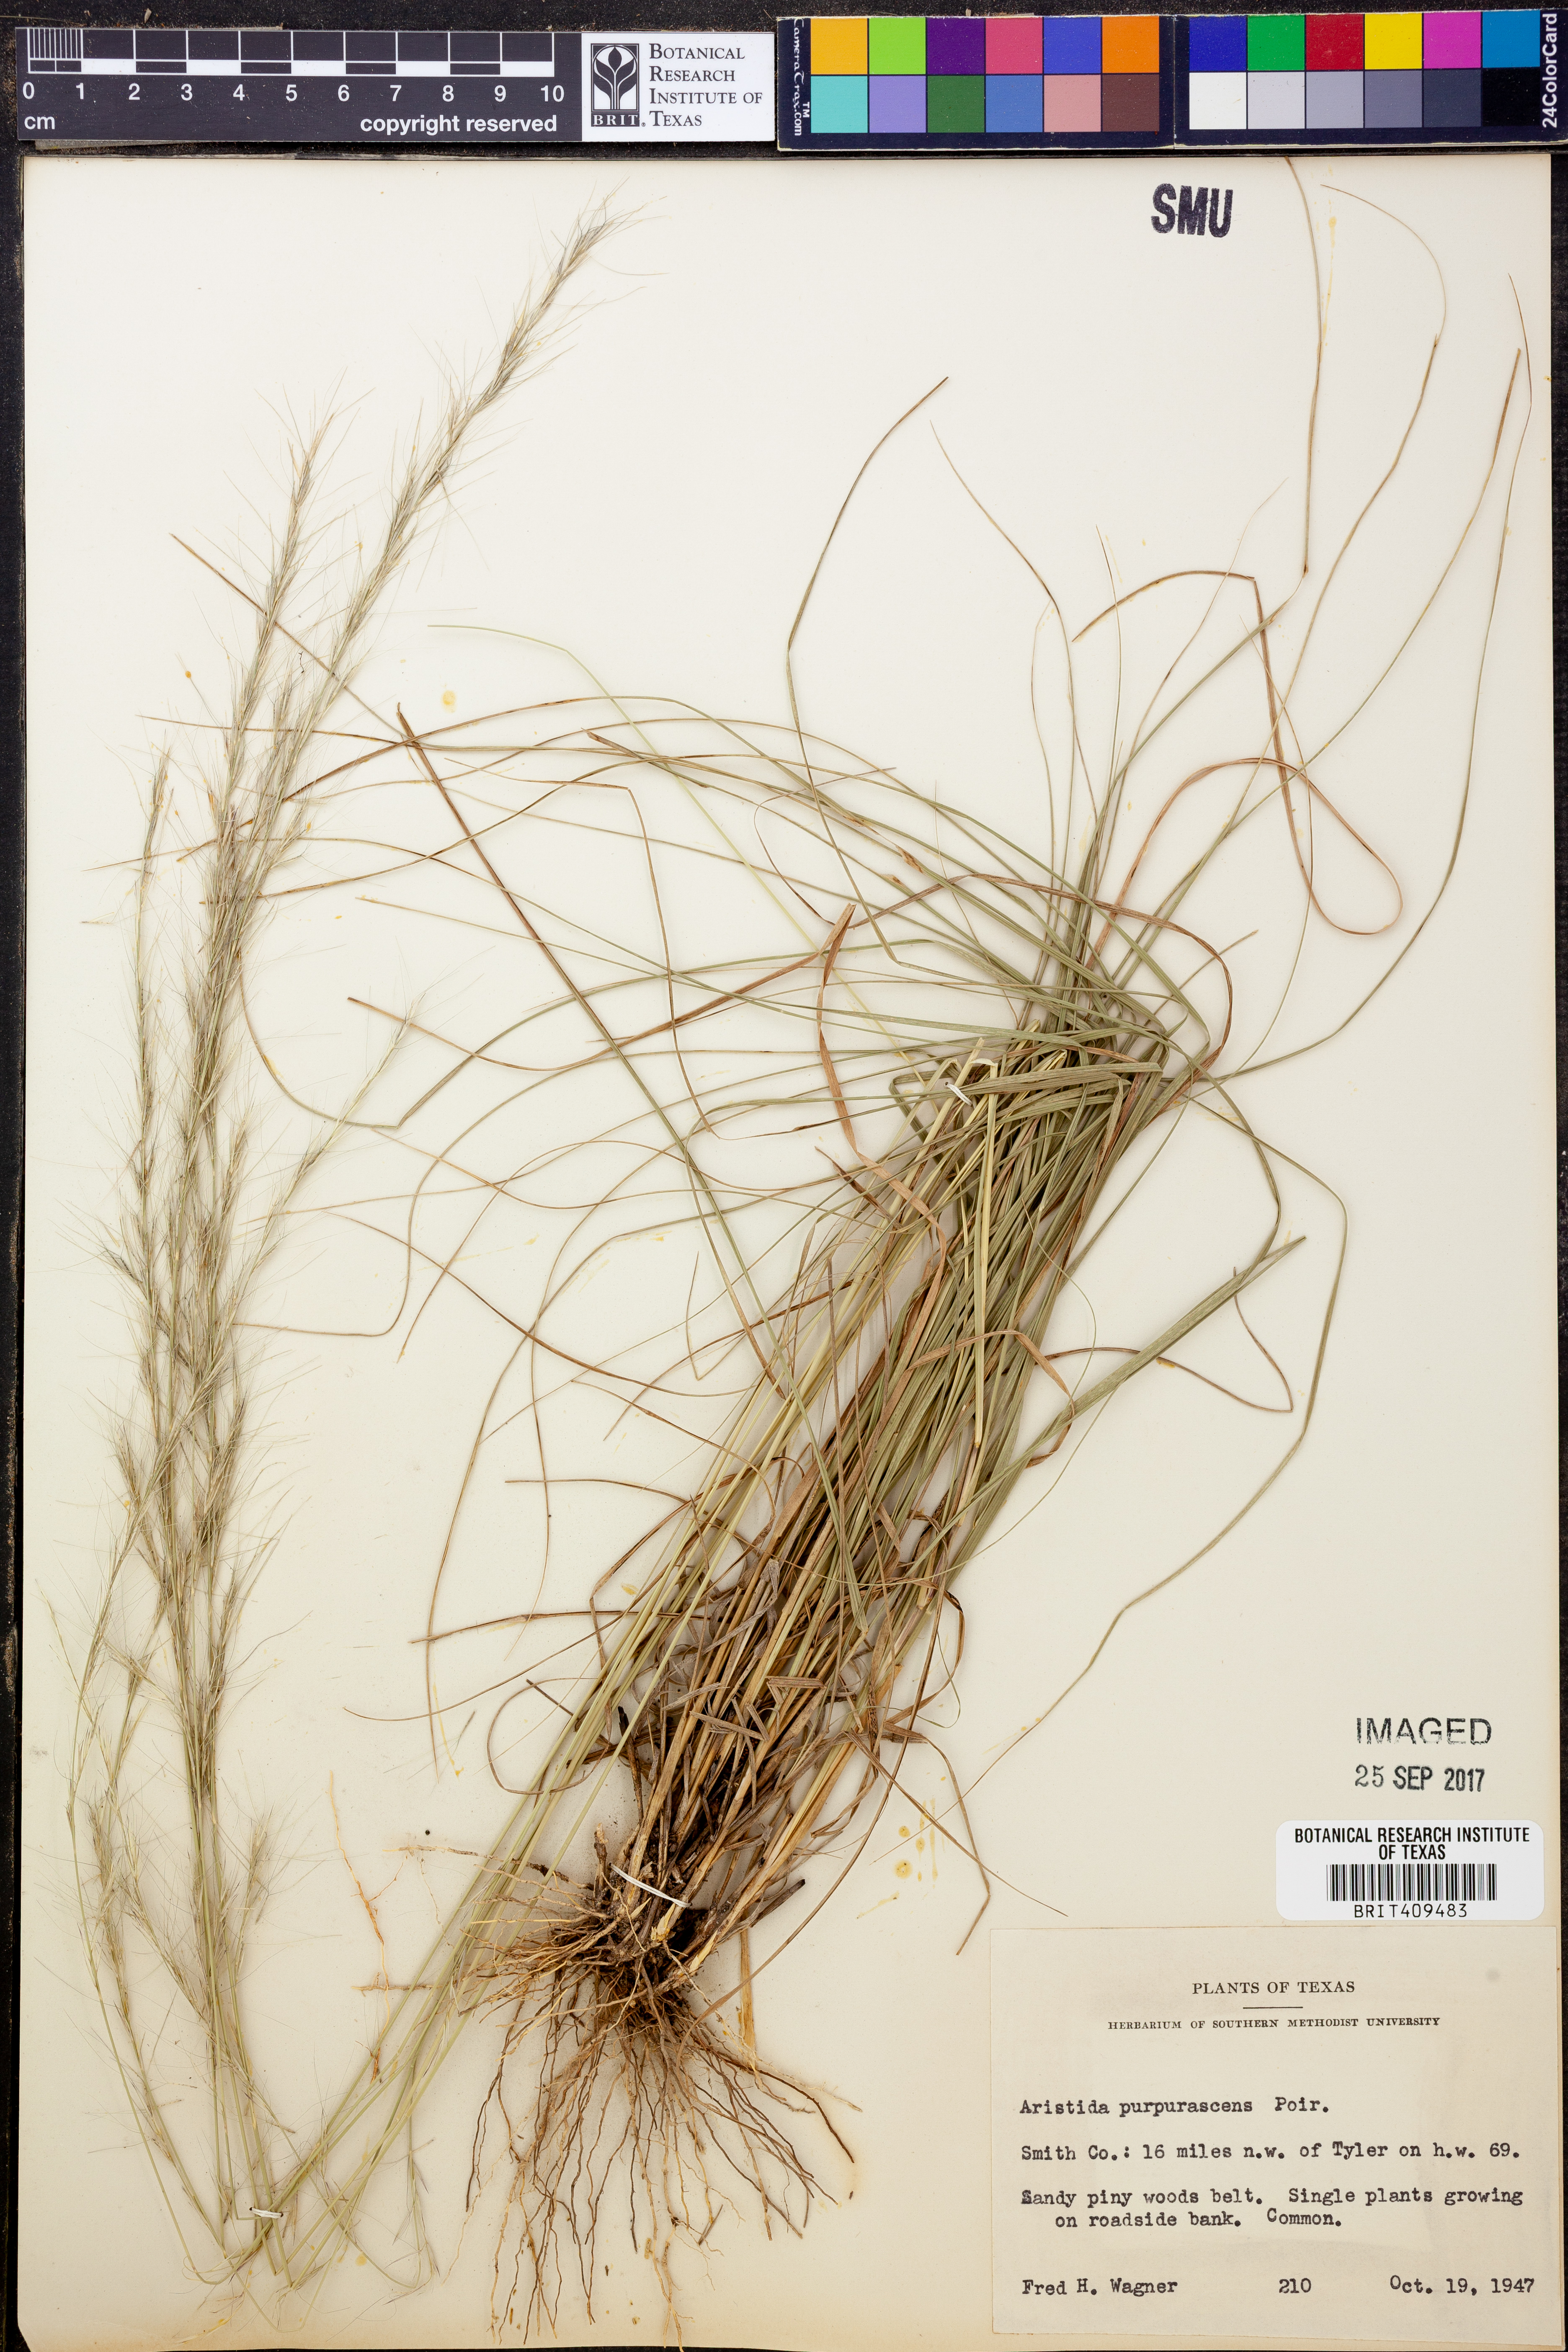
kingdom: Plantae
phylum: Tracheophyta
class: Liliopsida
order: Poales
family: Poaceae
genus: Aristida
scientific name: Aristida purpurascens
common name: Arrow-feather
